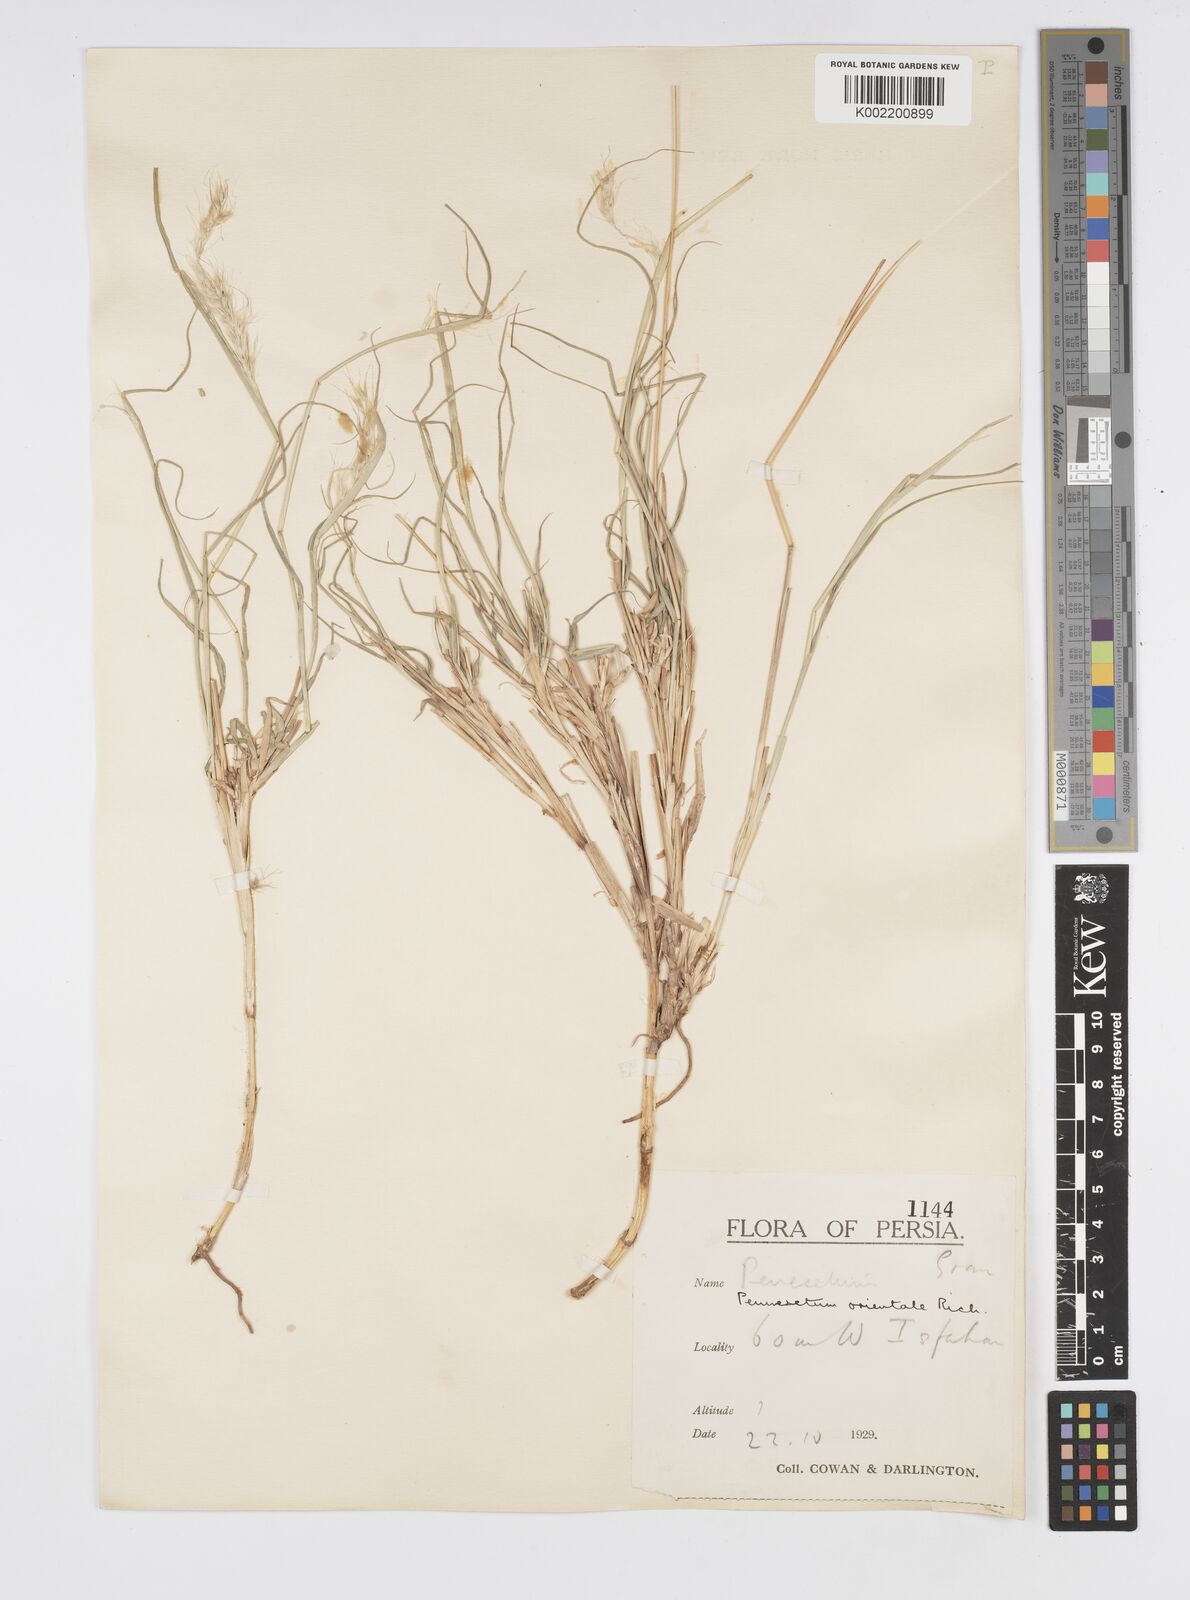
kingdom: Plantae
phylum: Tracheophyta
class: Liliopsida
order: Poales
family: Poaceae
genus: Cenchrus
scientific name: Cenchrus orientalis
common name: Oriental fountain grass
